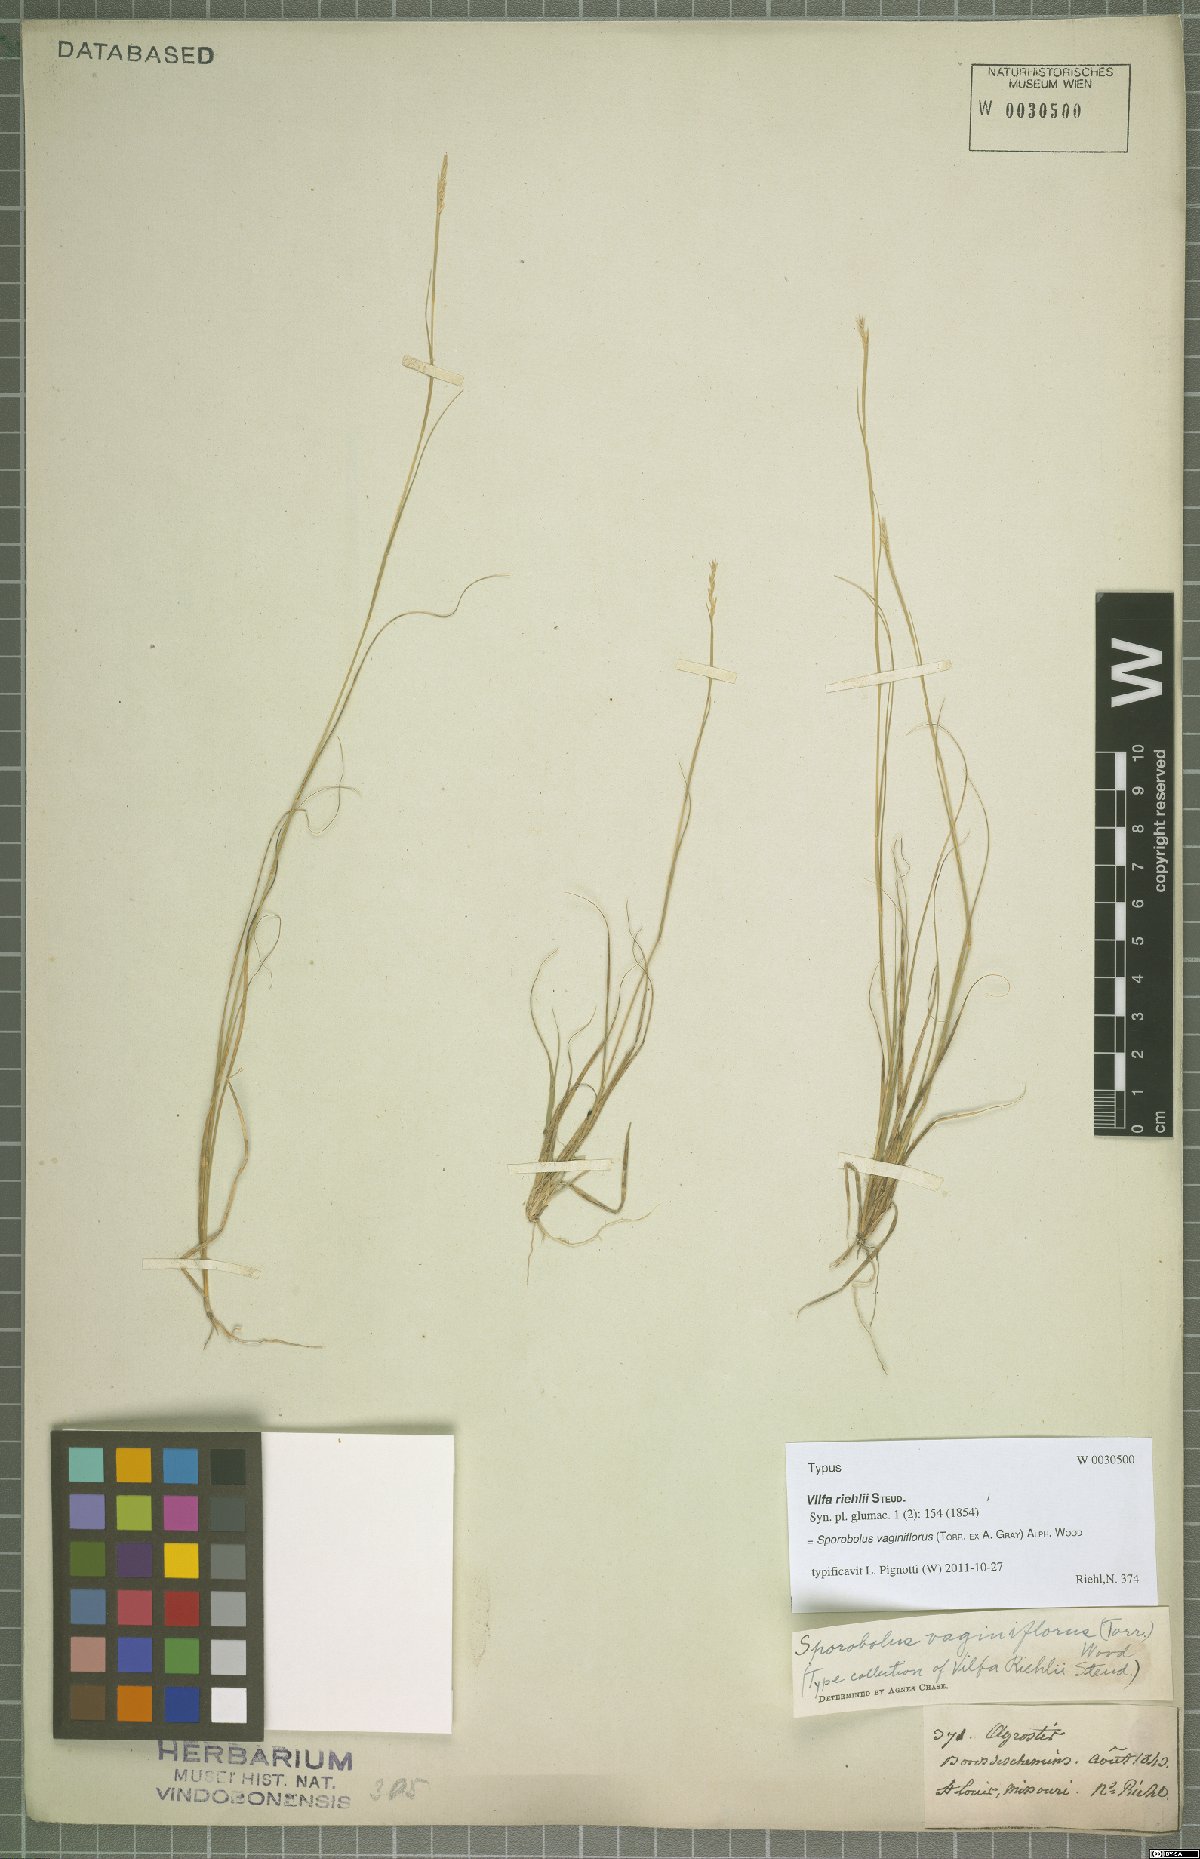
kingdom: Plantae
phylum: Tracheophyta
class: Liliopsida
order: Poales
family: Poaceae
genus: Sporobolus
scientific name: Sporobolus vaginiflorus
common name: Poverty dropseed
